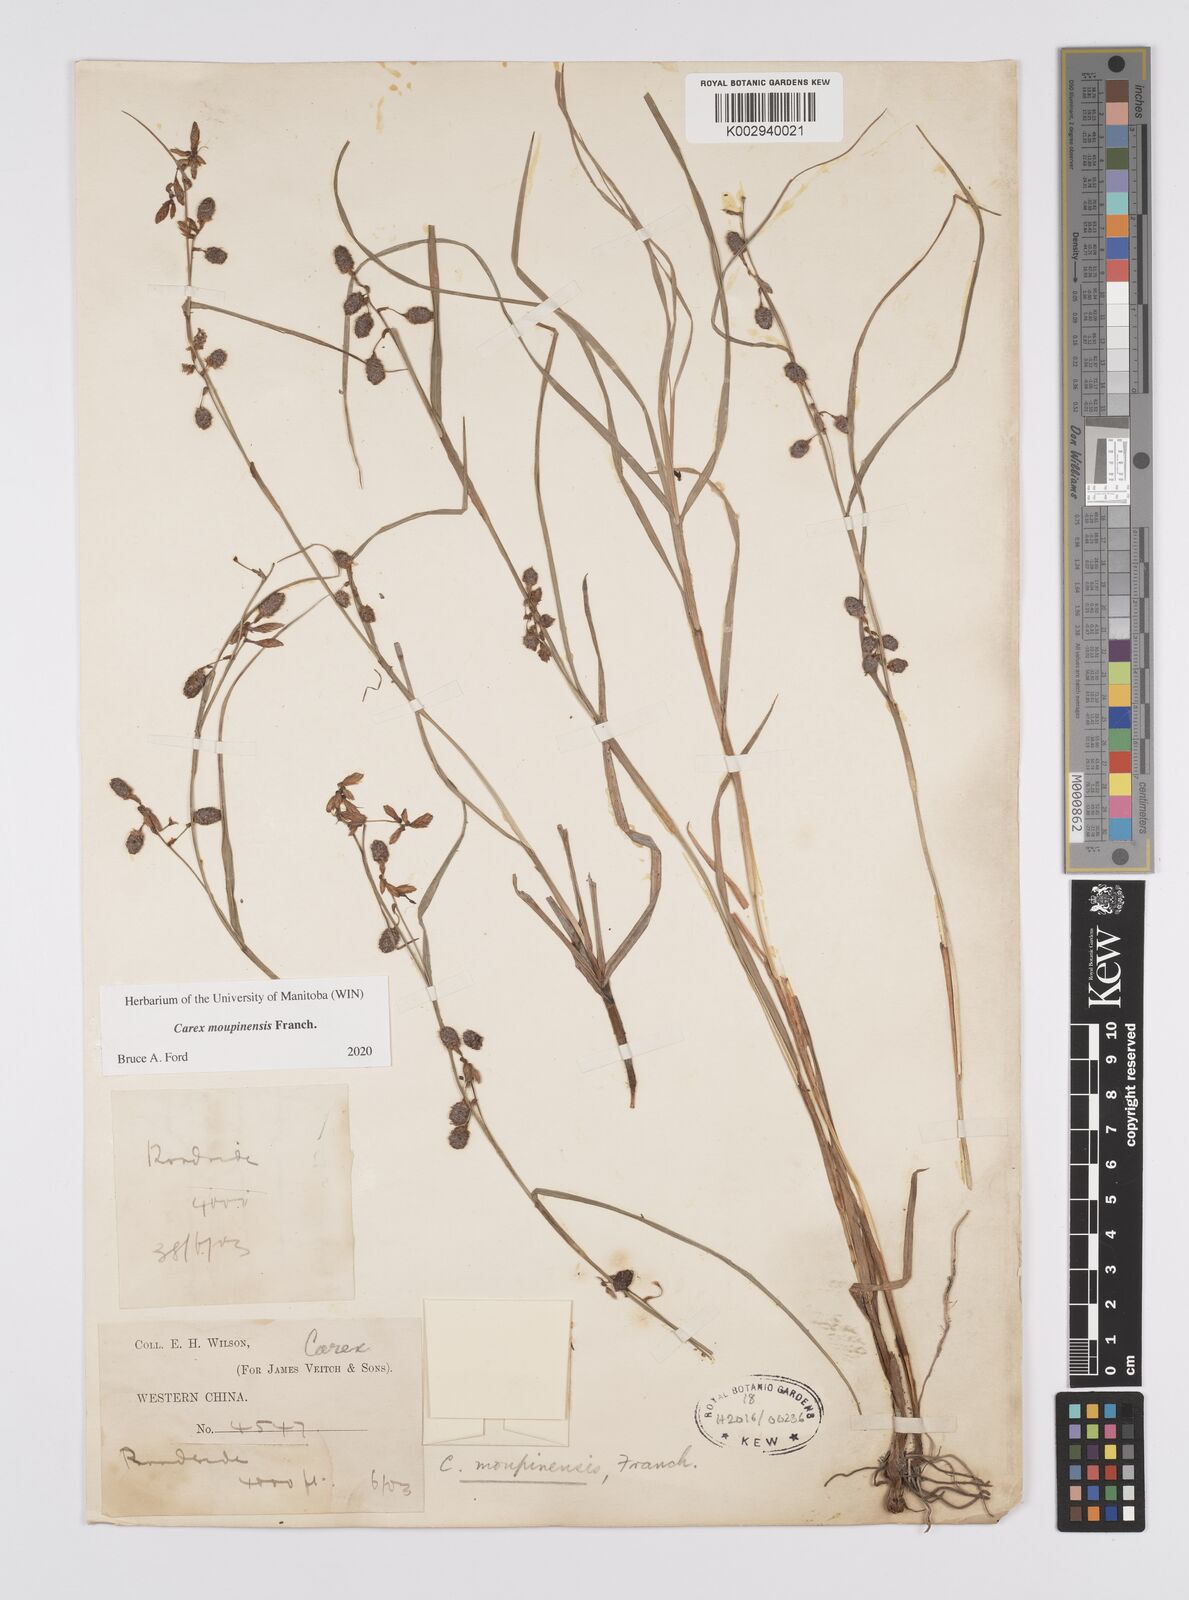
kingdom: Plantae
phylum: Tracheophyta
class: Liliopsida
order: Poales
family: Cyperaceae
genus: Carex
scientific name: Carex moupinensis
